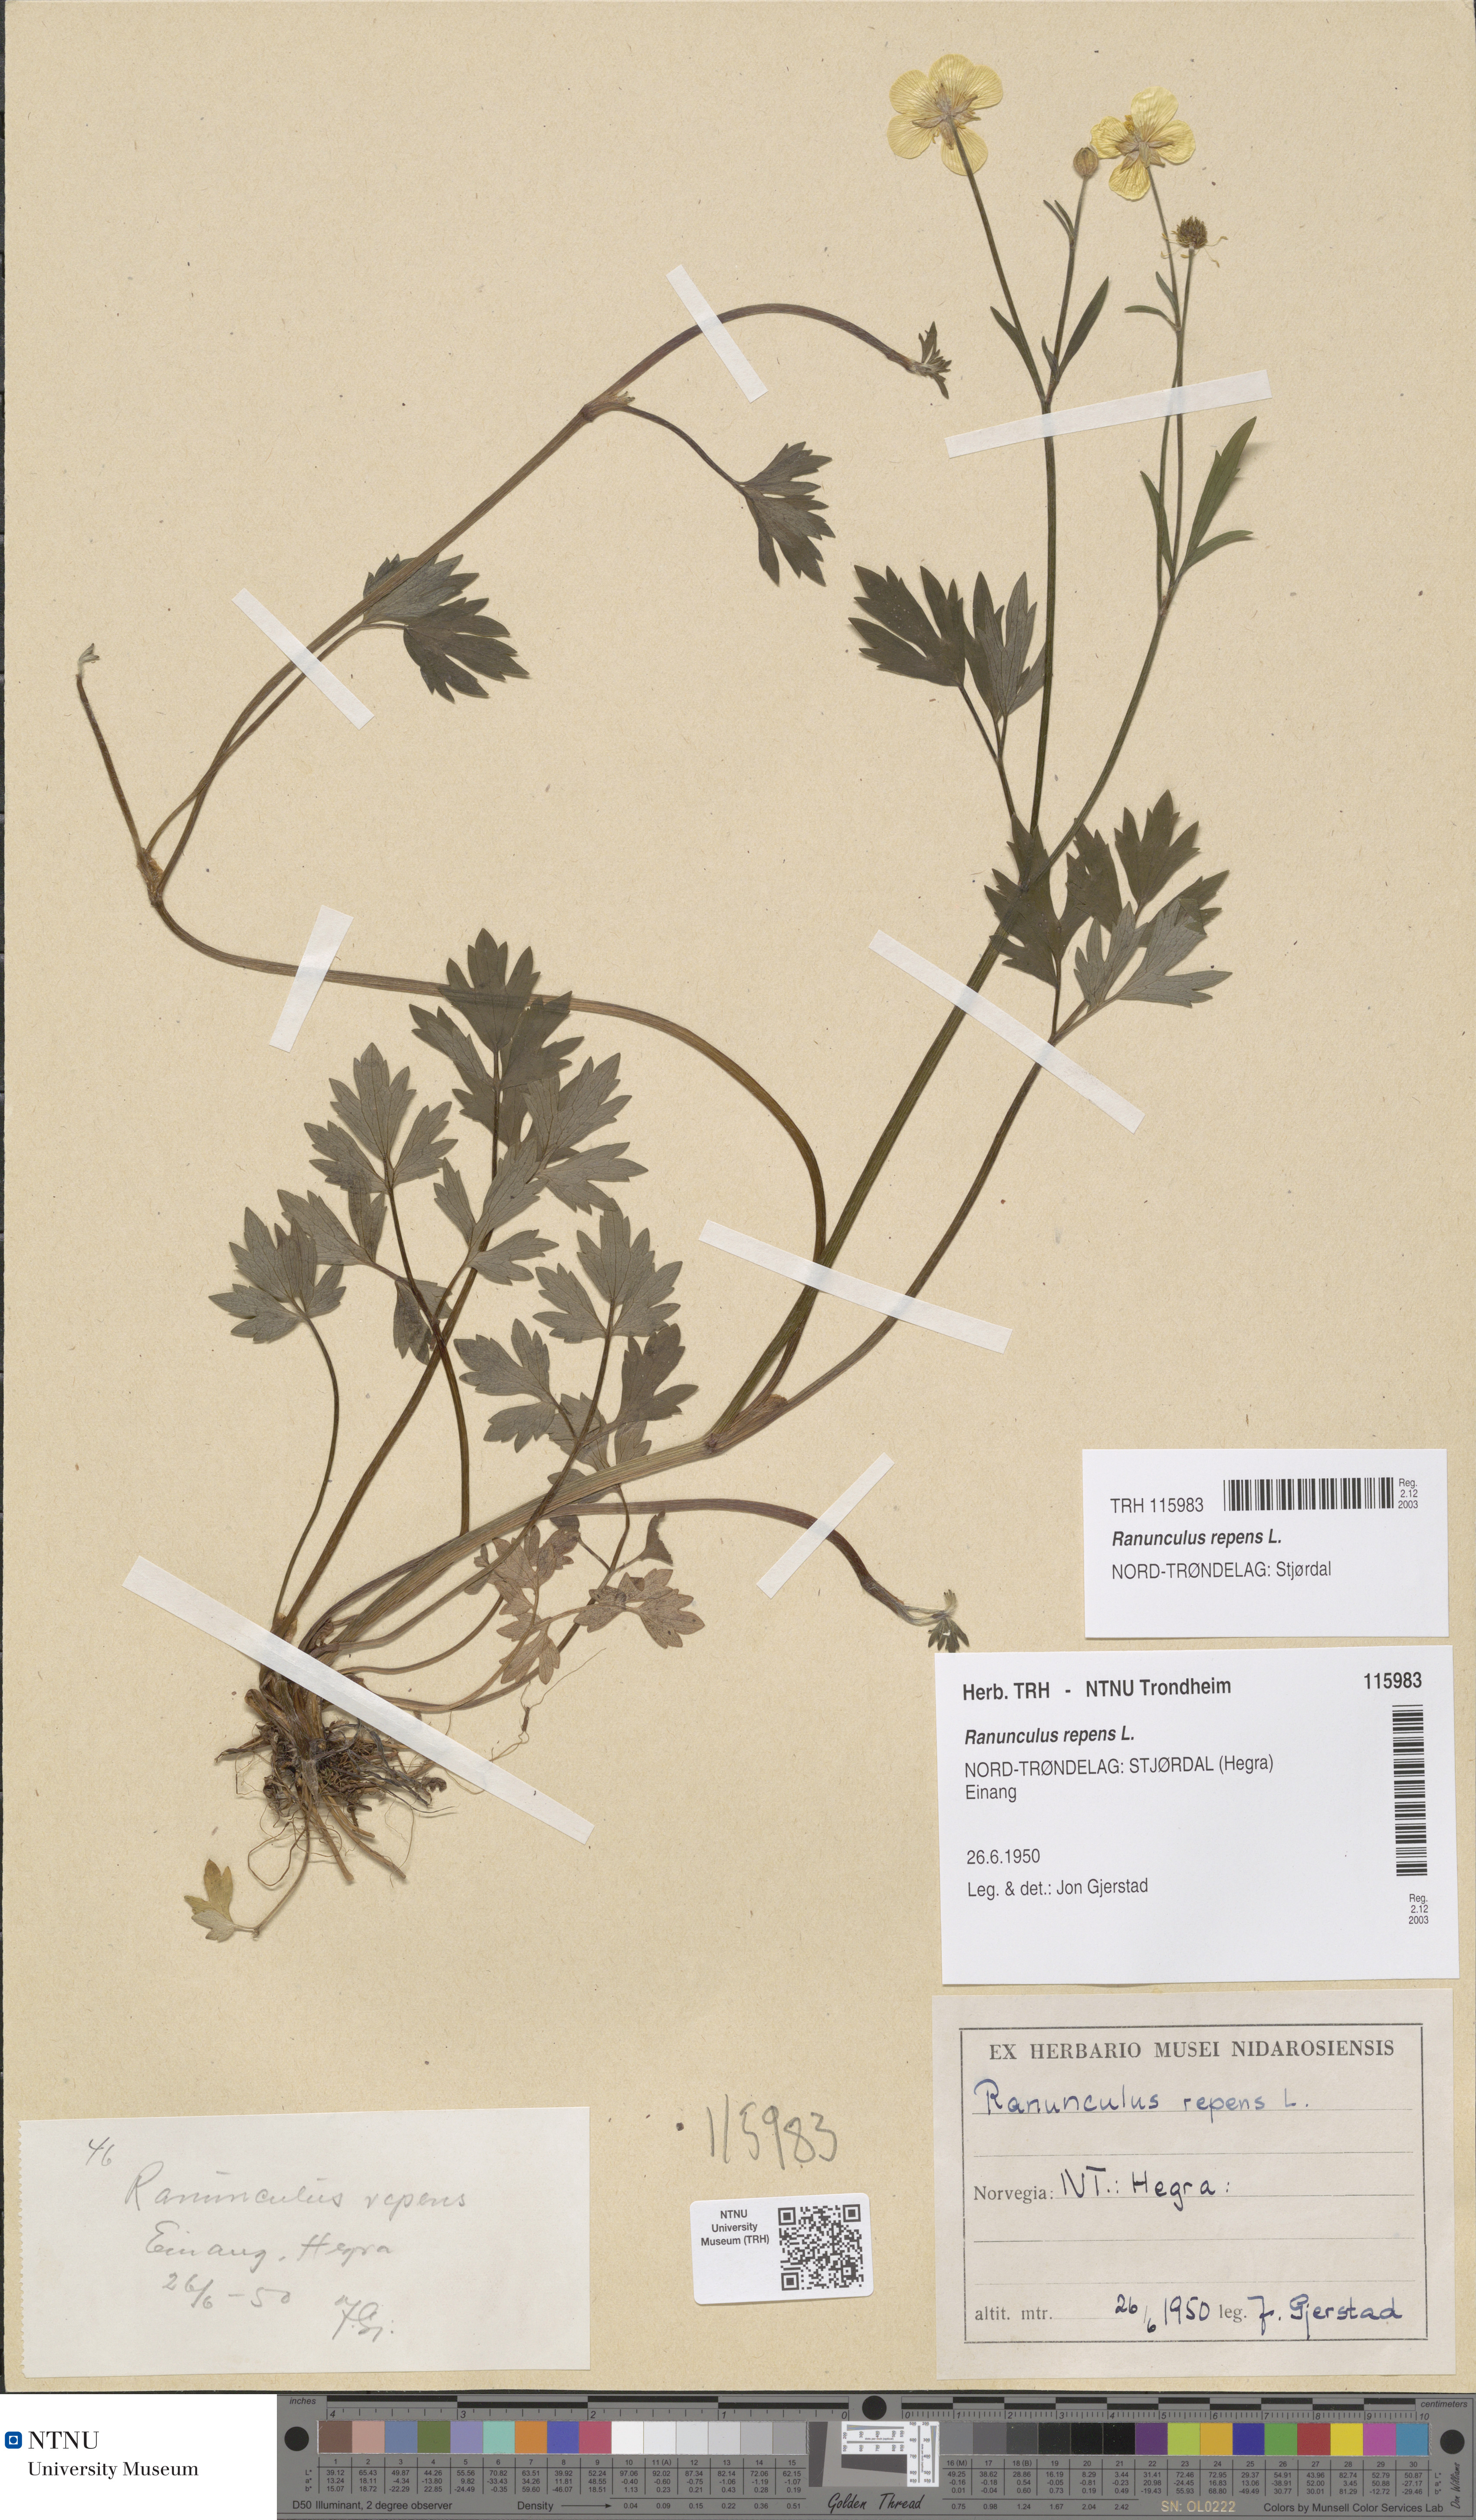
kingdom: Plantae
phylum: Tracheophyta
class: Magnoliopsida
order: Ranunculales
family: Ranunculaceae
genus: Ranunculus
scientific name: Ranunculus repens
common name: Creeping buttercup
